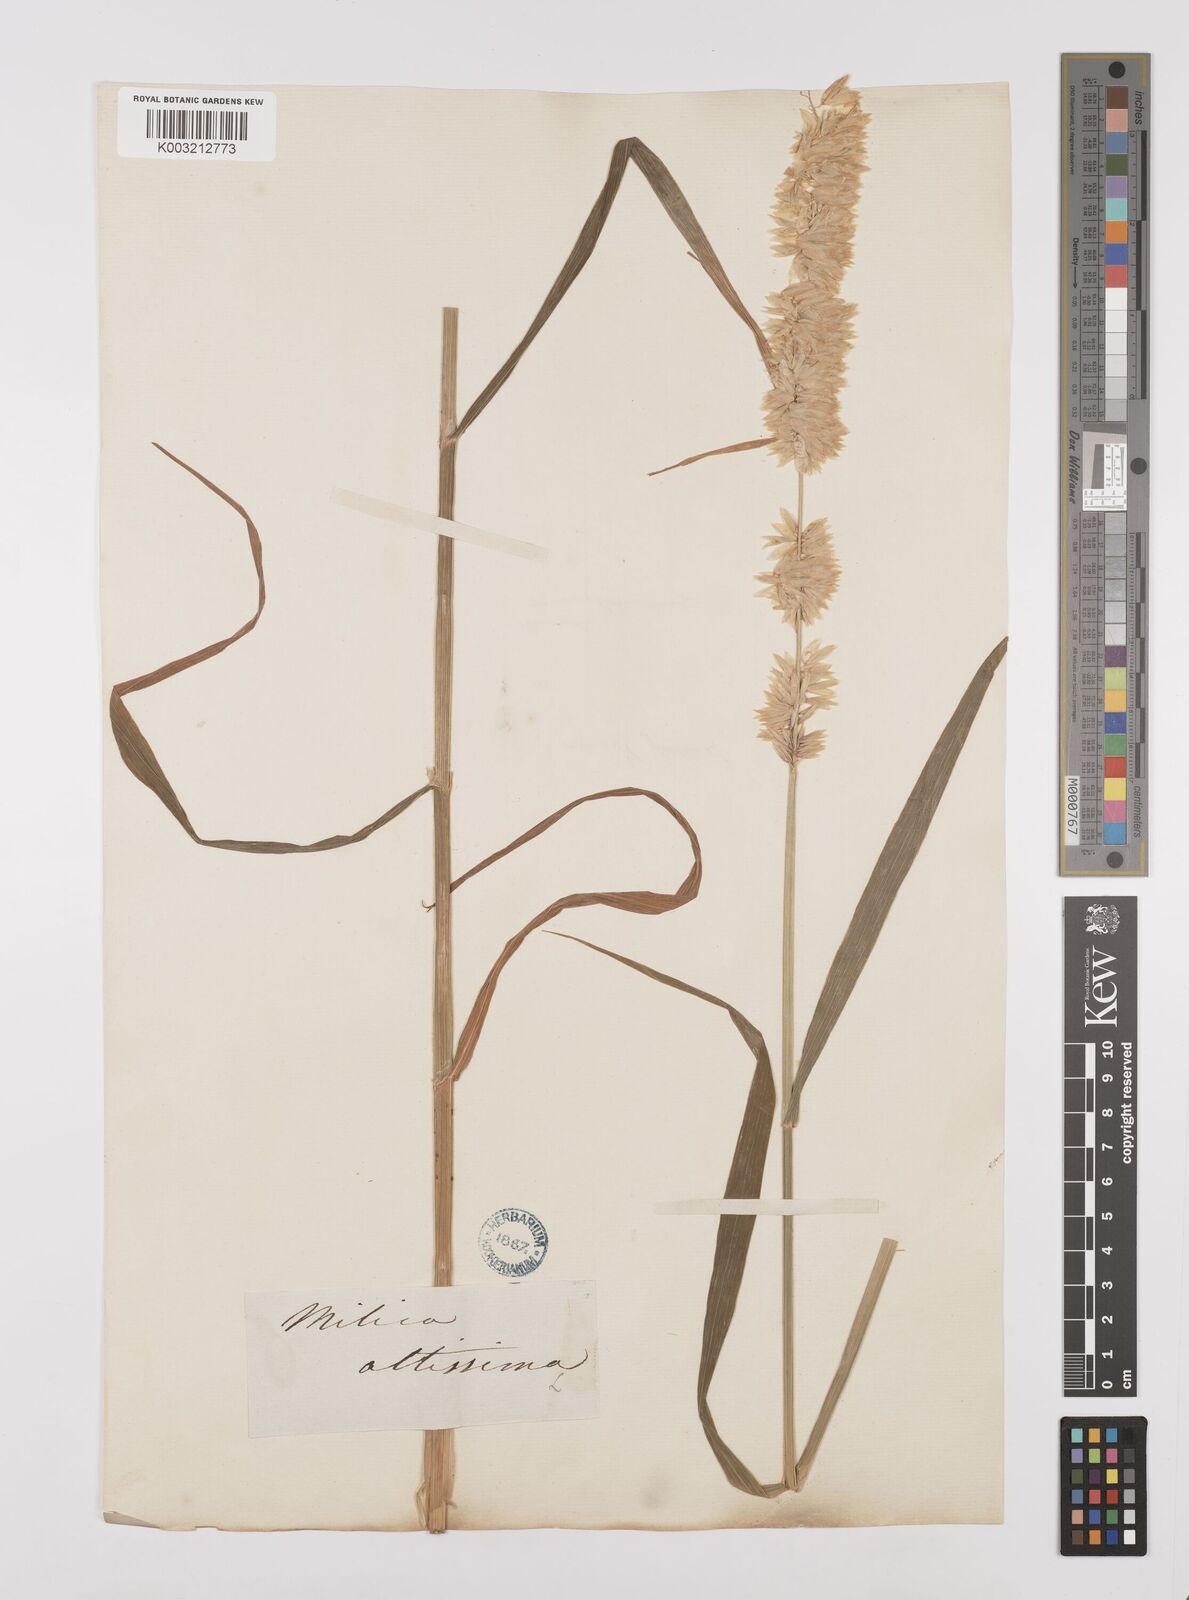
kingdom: Plantae
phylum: Tracheophyta
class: Liliopsida
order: Poales
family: Poaceae
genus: Melica
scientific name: Melica altissima
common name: Siberian melicgrass
